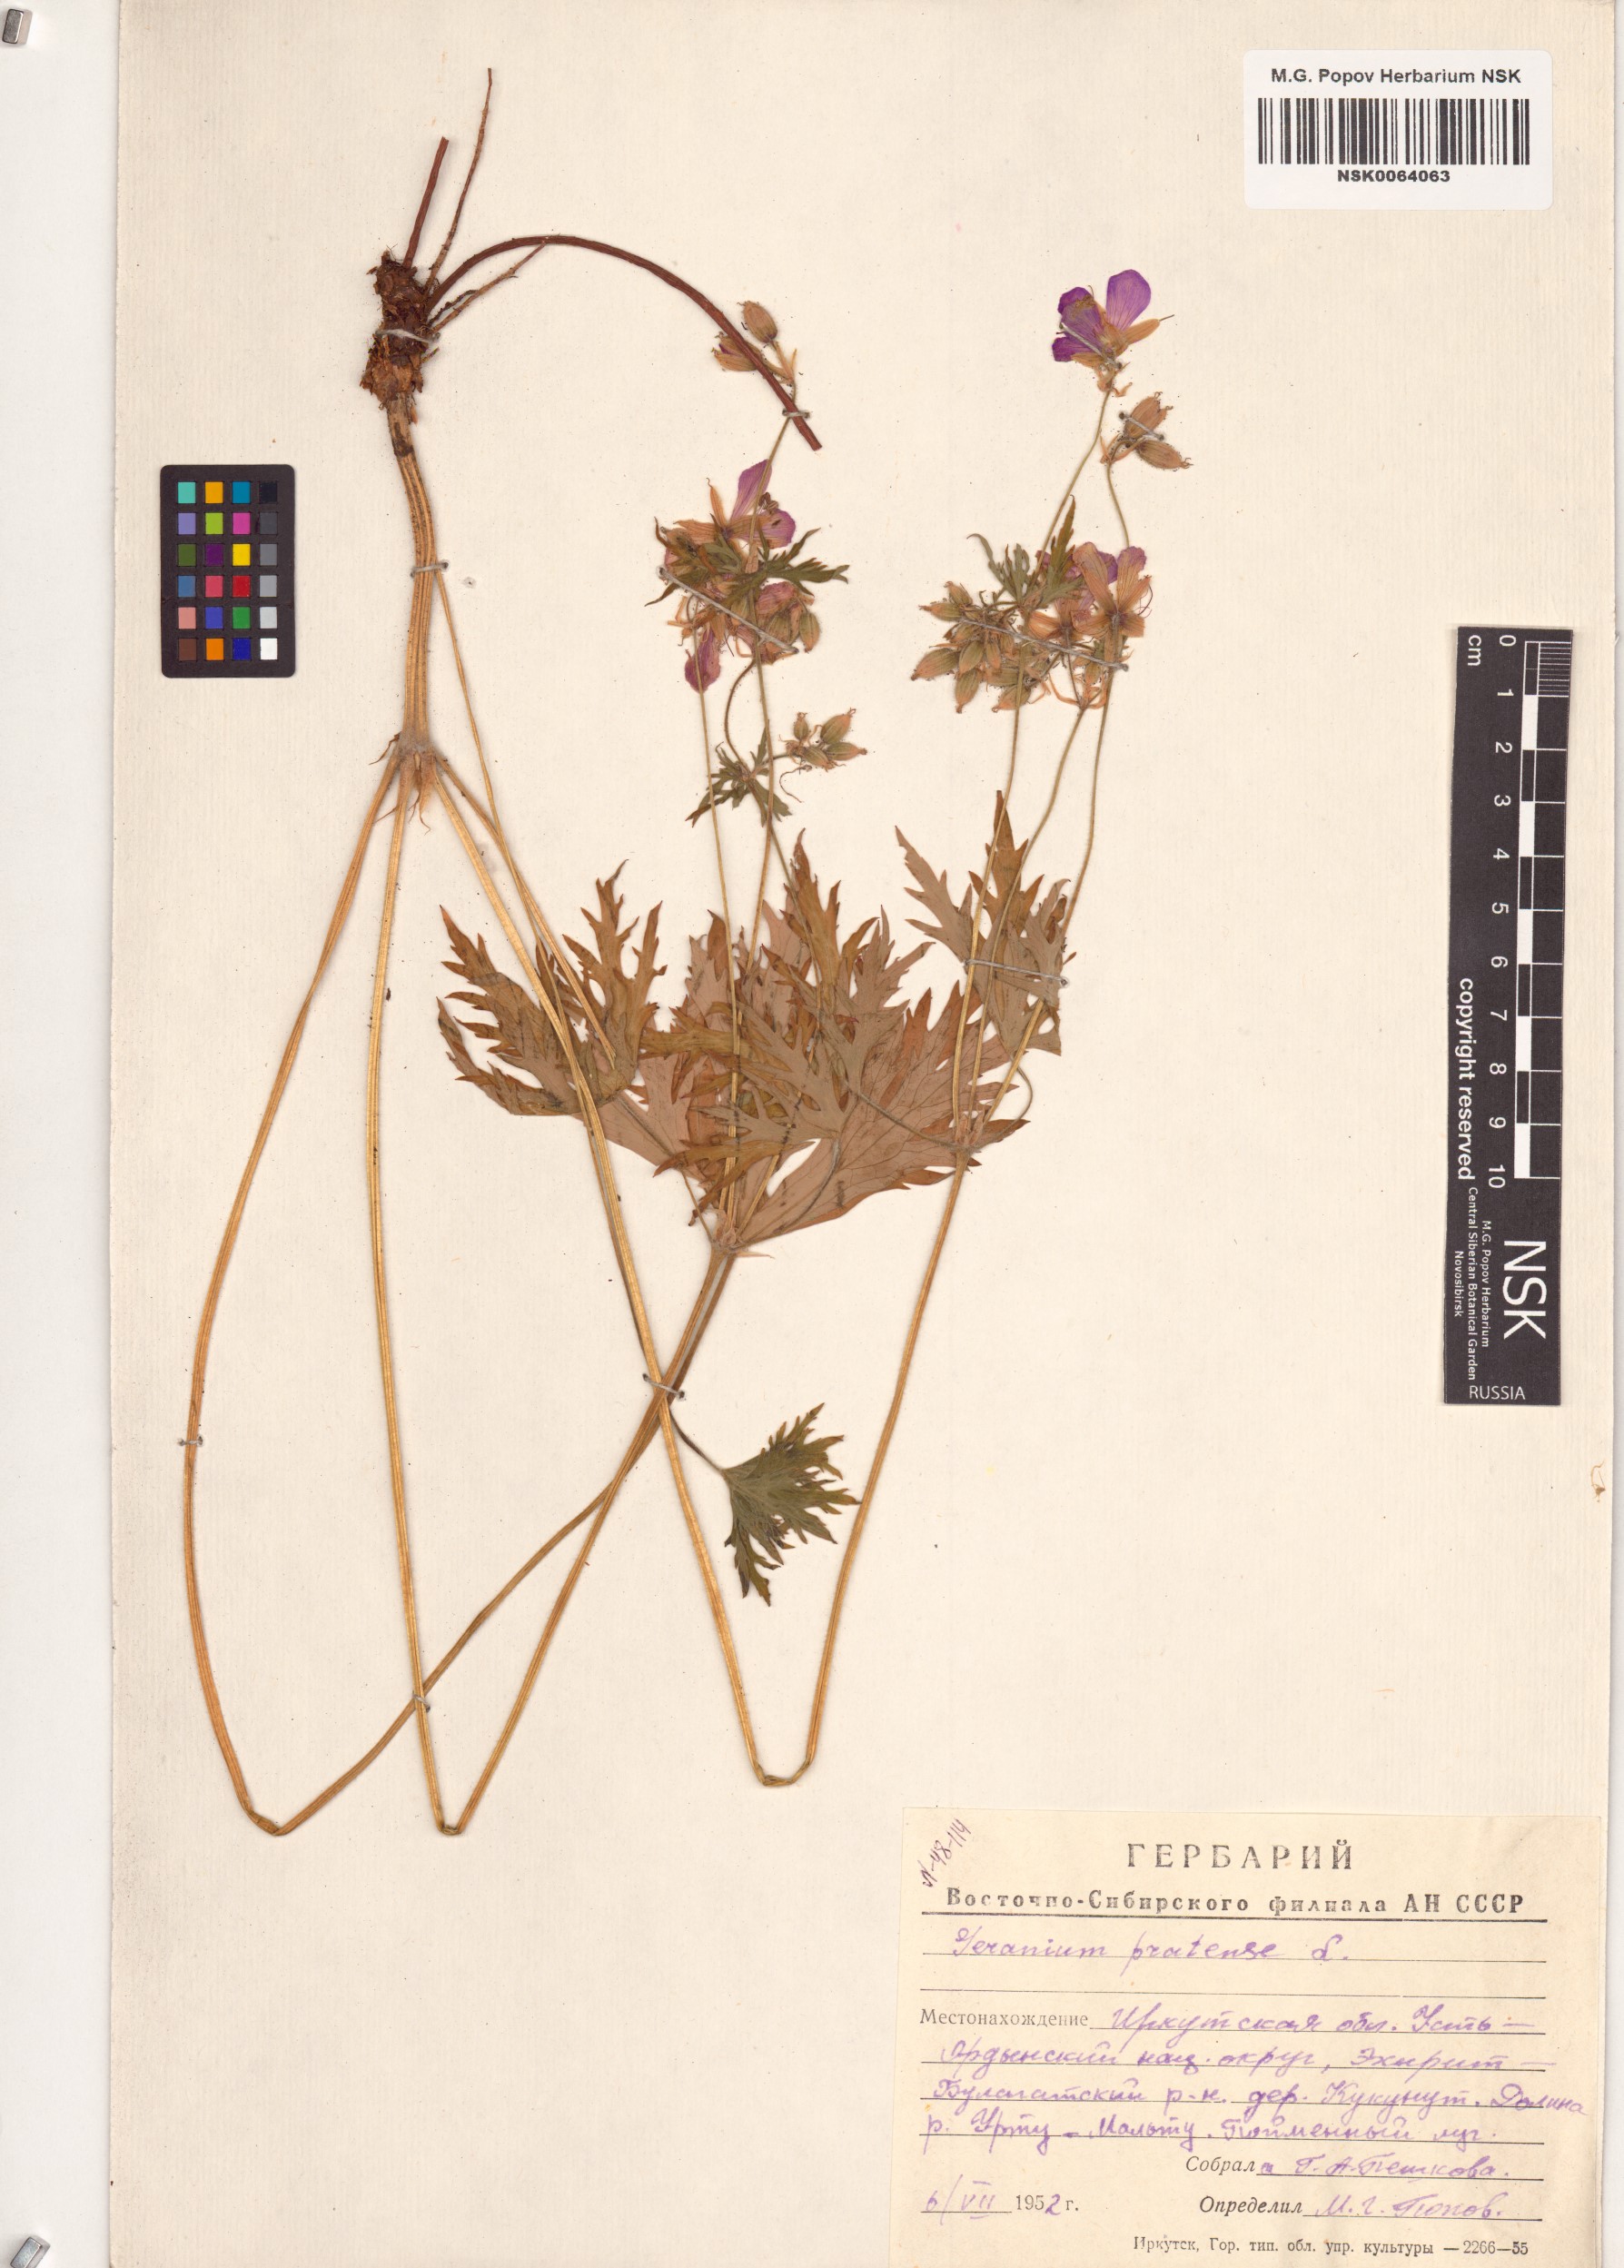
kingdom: Plantae
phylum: Tracheophyta
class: Magnoliopsida
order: Geraniales
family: Geraniaceae
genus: Geranium
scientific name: Geranium pratense
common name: Meadow crane's-bill
